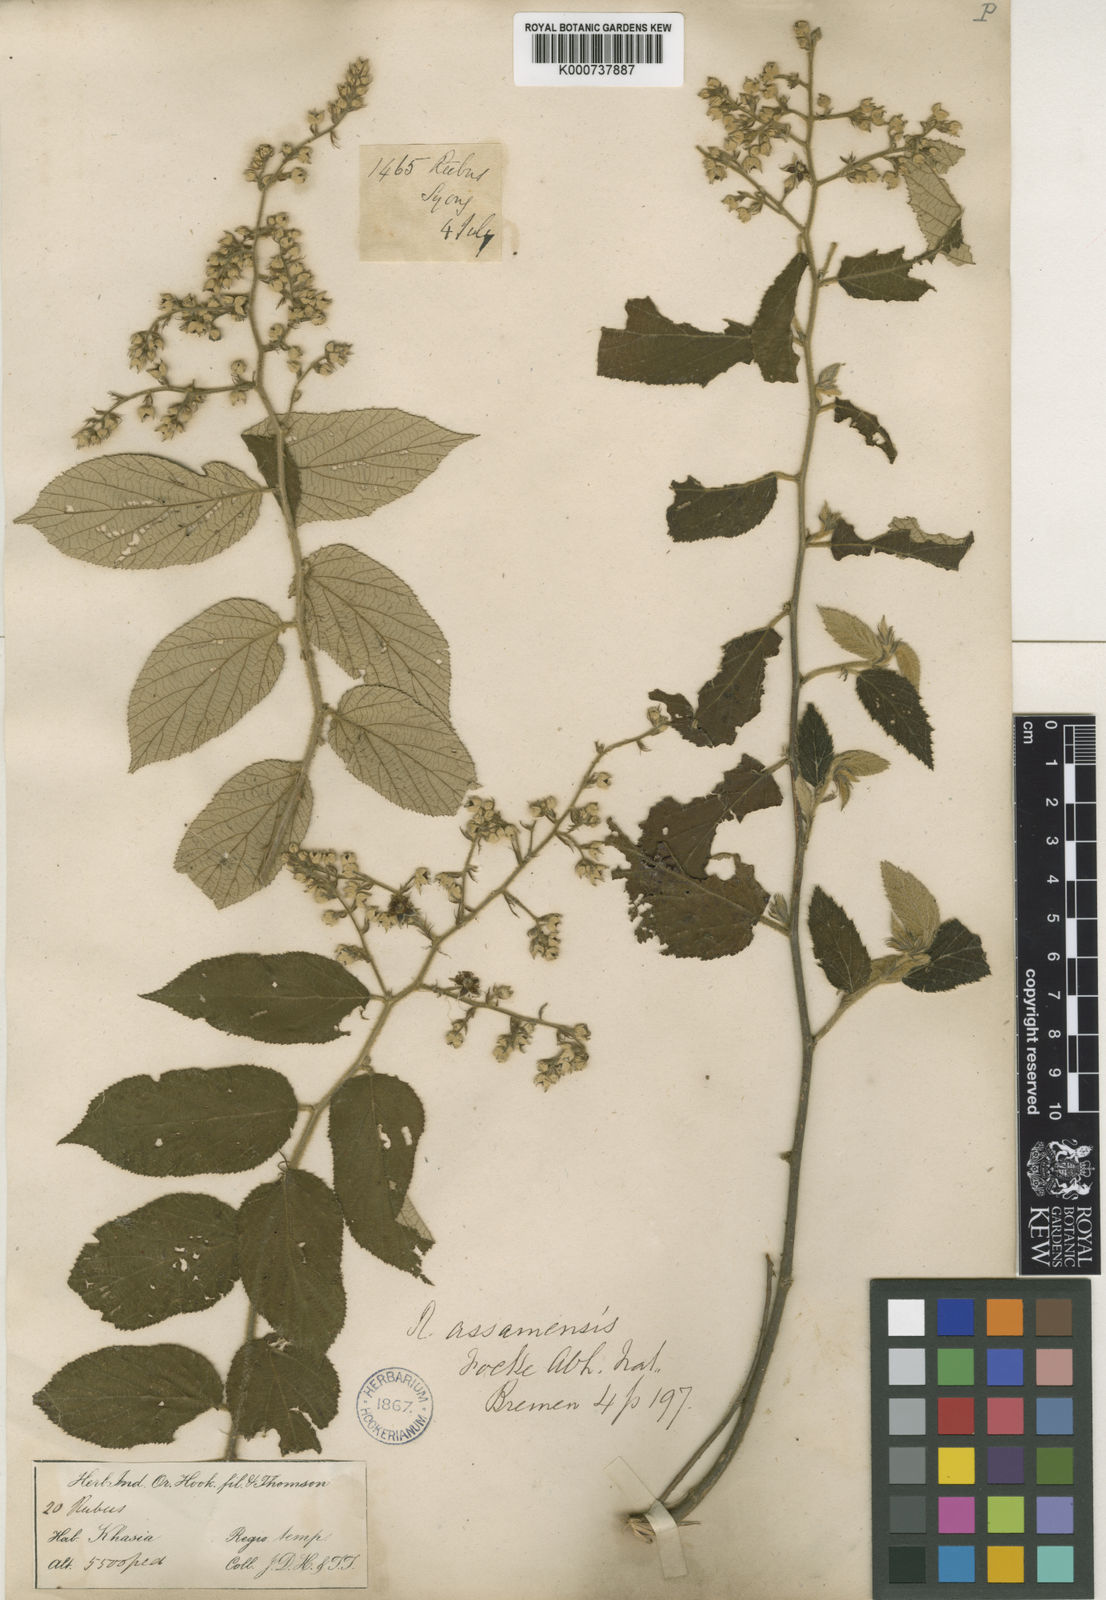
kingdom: Plantae
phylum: Tracheophyta
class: Magnoliopsida
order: Rosales
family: Rosaceae
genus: Rubus
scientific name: Rubus assamensis
